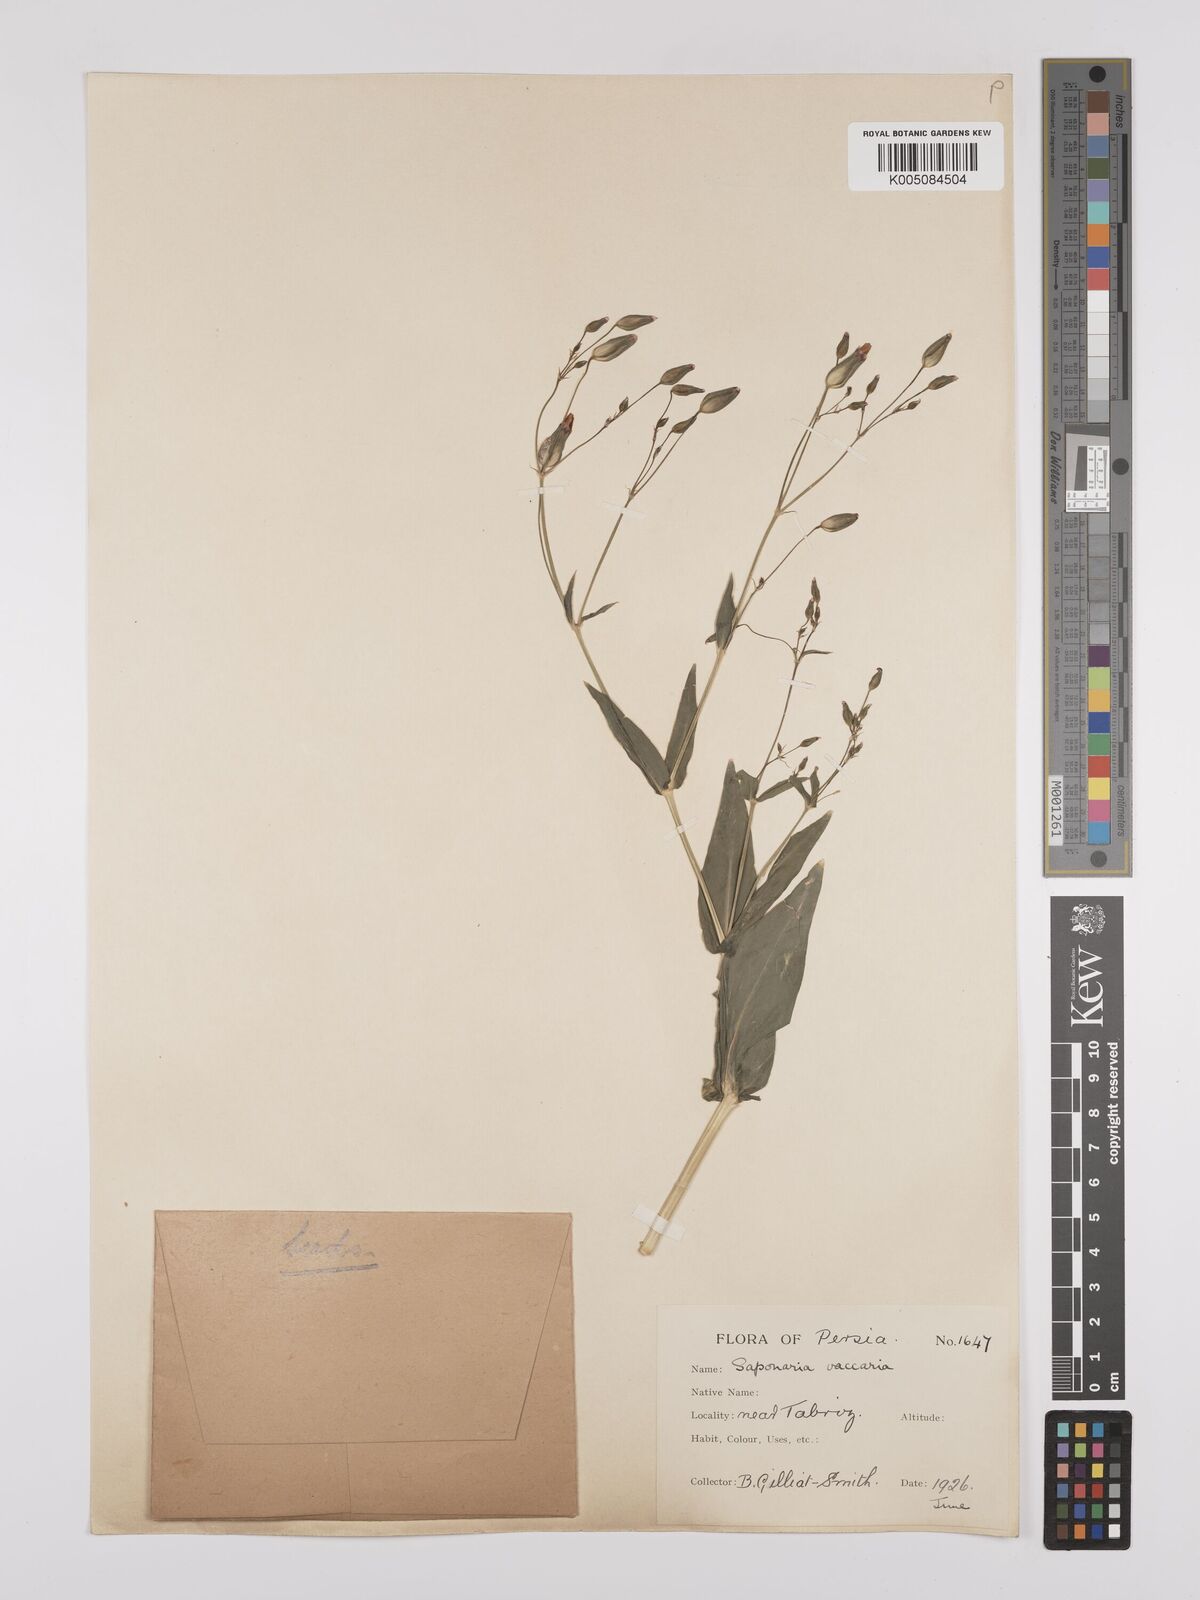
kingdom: Plantae
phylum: Tracheophyta
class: Magnoliopsida
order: Caryophyllales
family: Caryophyllaceae
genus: Gypsophila
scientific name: Gypsophila vaccaria
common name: Cow soapwort
